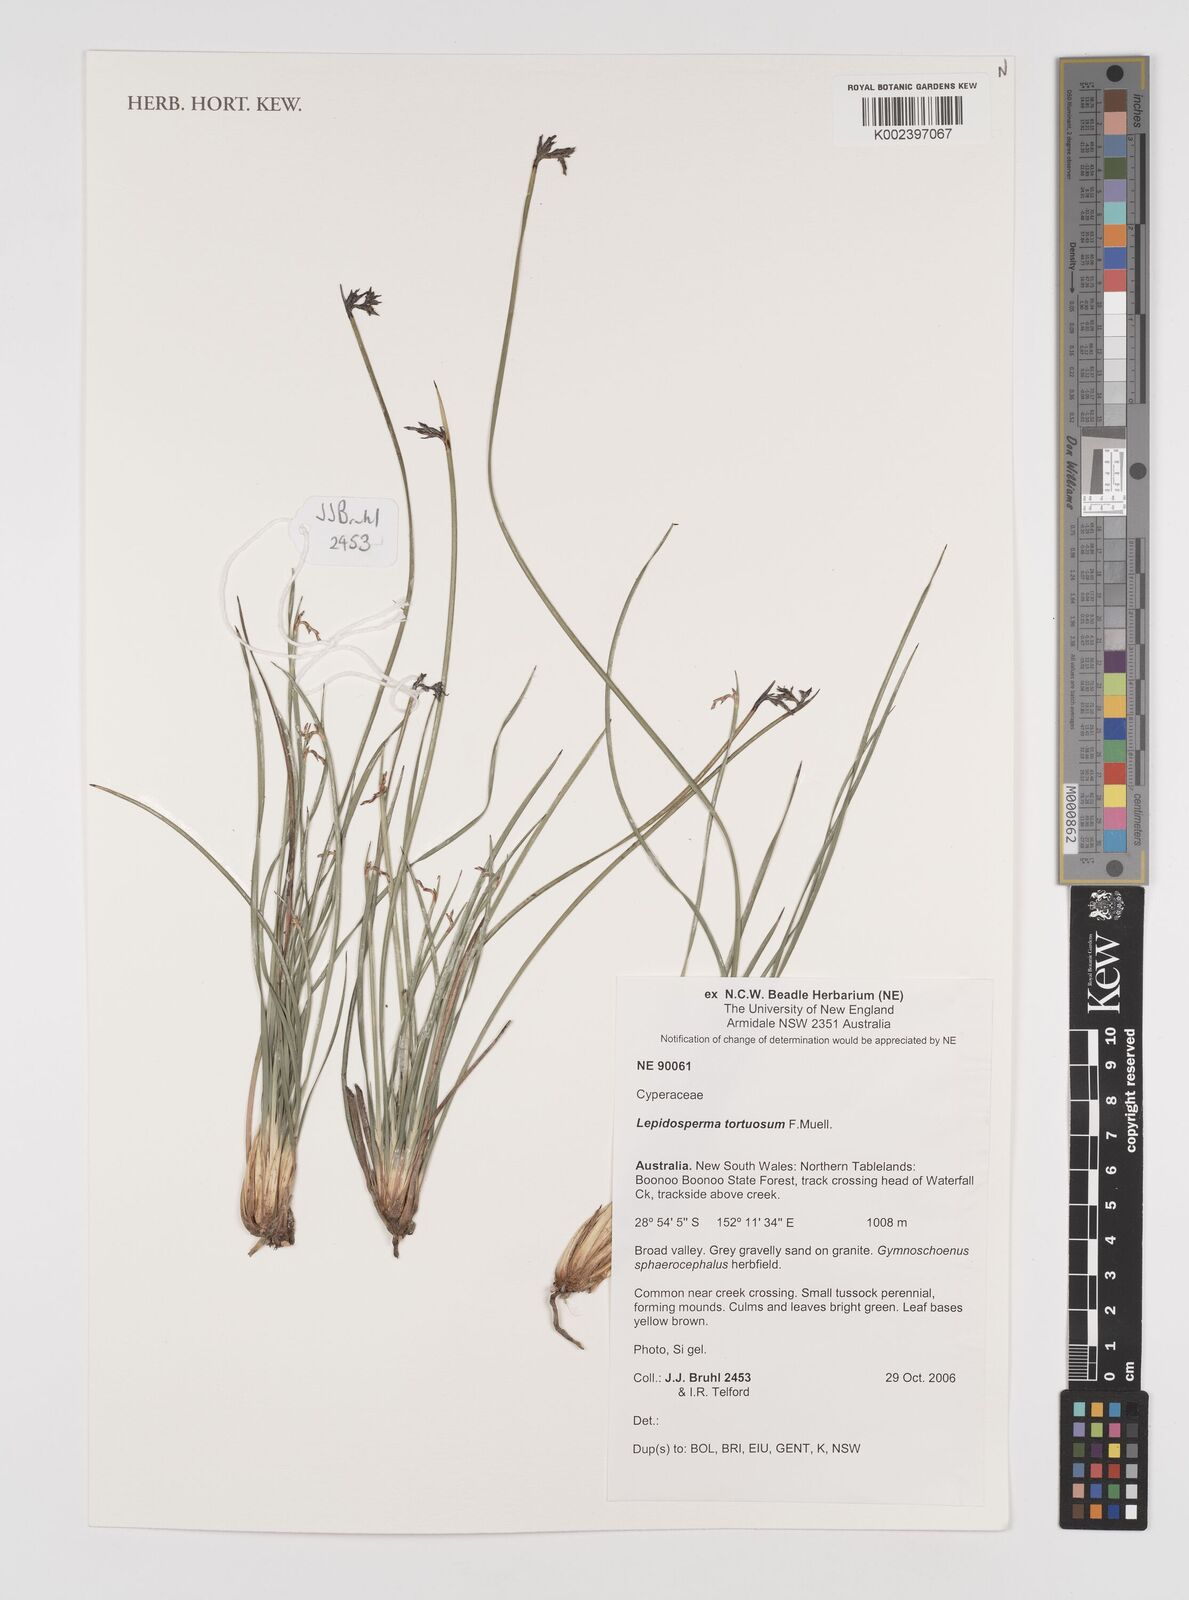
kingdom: Plantae
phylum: Tracheophyta
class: Liliopsida
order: Poales
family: Cyperaceae
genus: Lepidosperma
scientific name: Lepidosperma tortuosum
